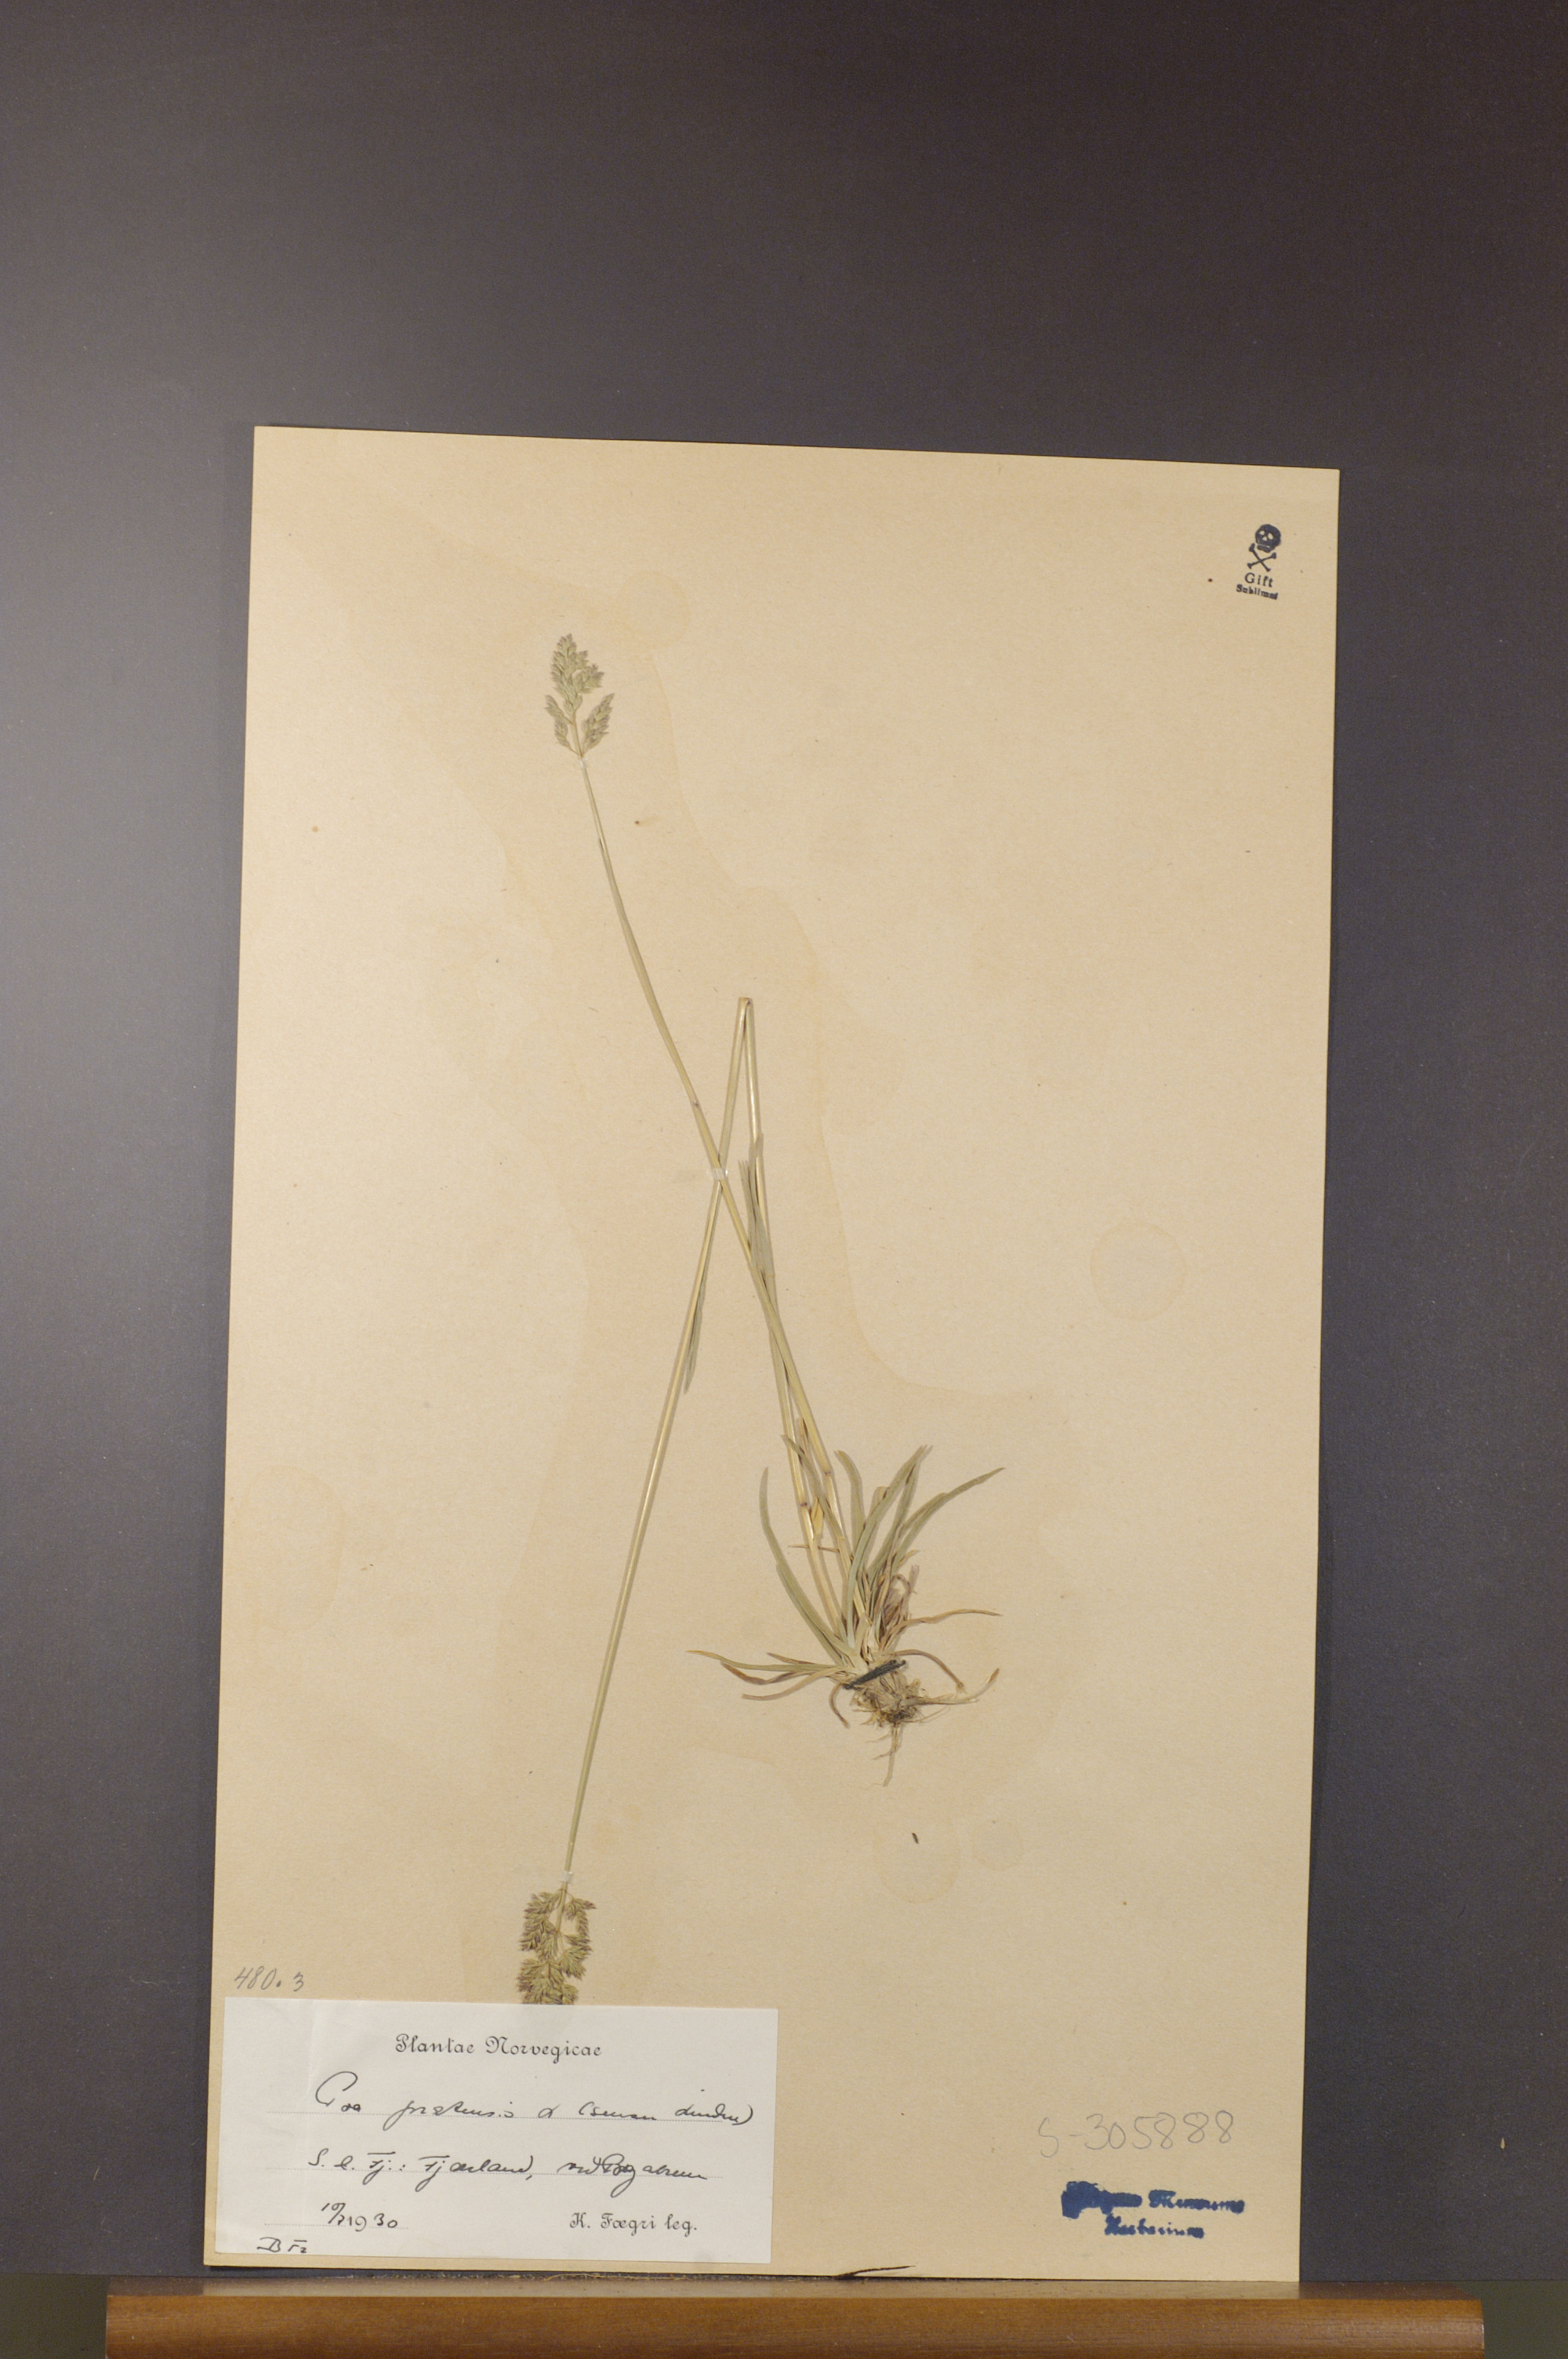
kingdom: Plantae
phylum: Tracheophyta
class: Liliopsida
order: Poales
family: Poaceae
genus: Poa
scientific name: Poa pratensis
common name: Kentucky bluegrass
